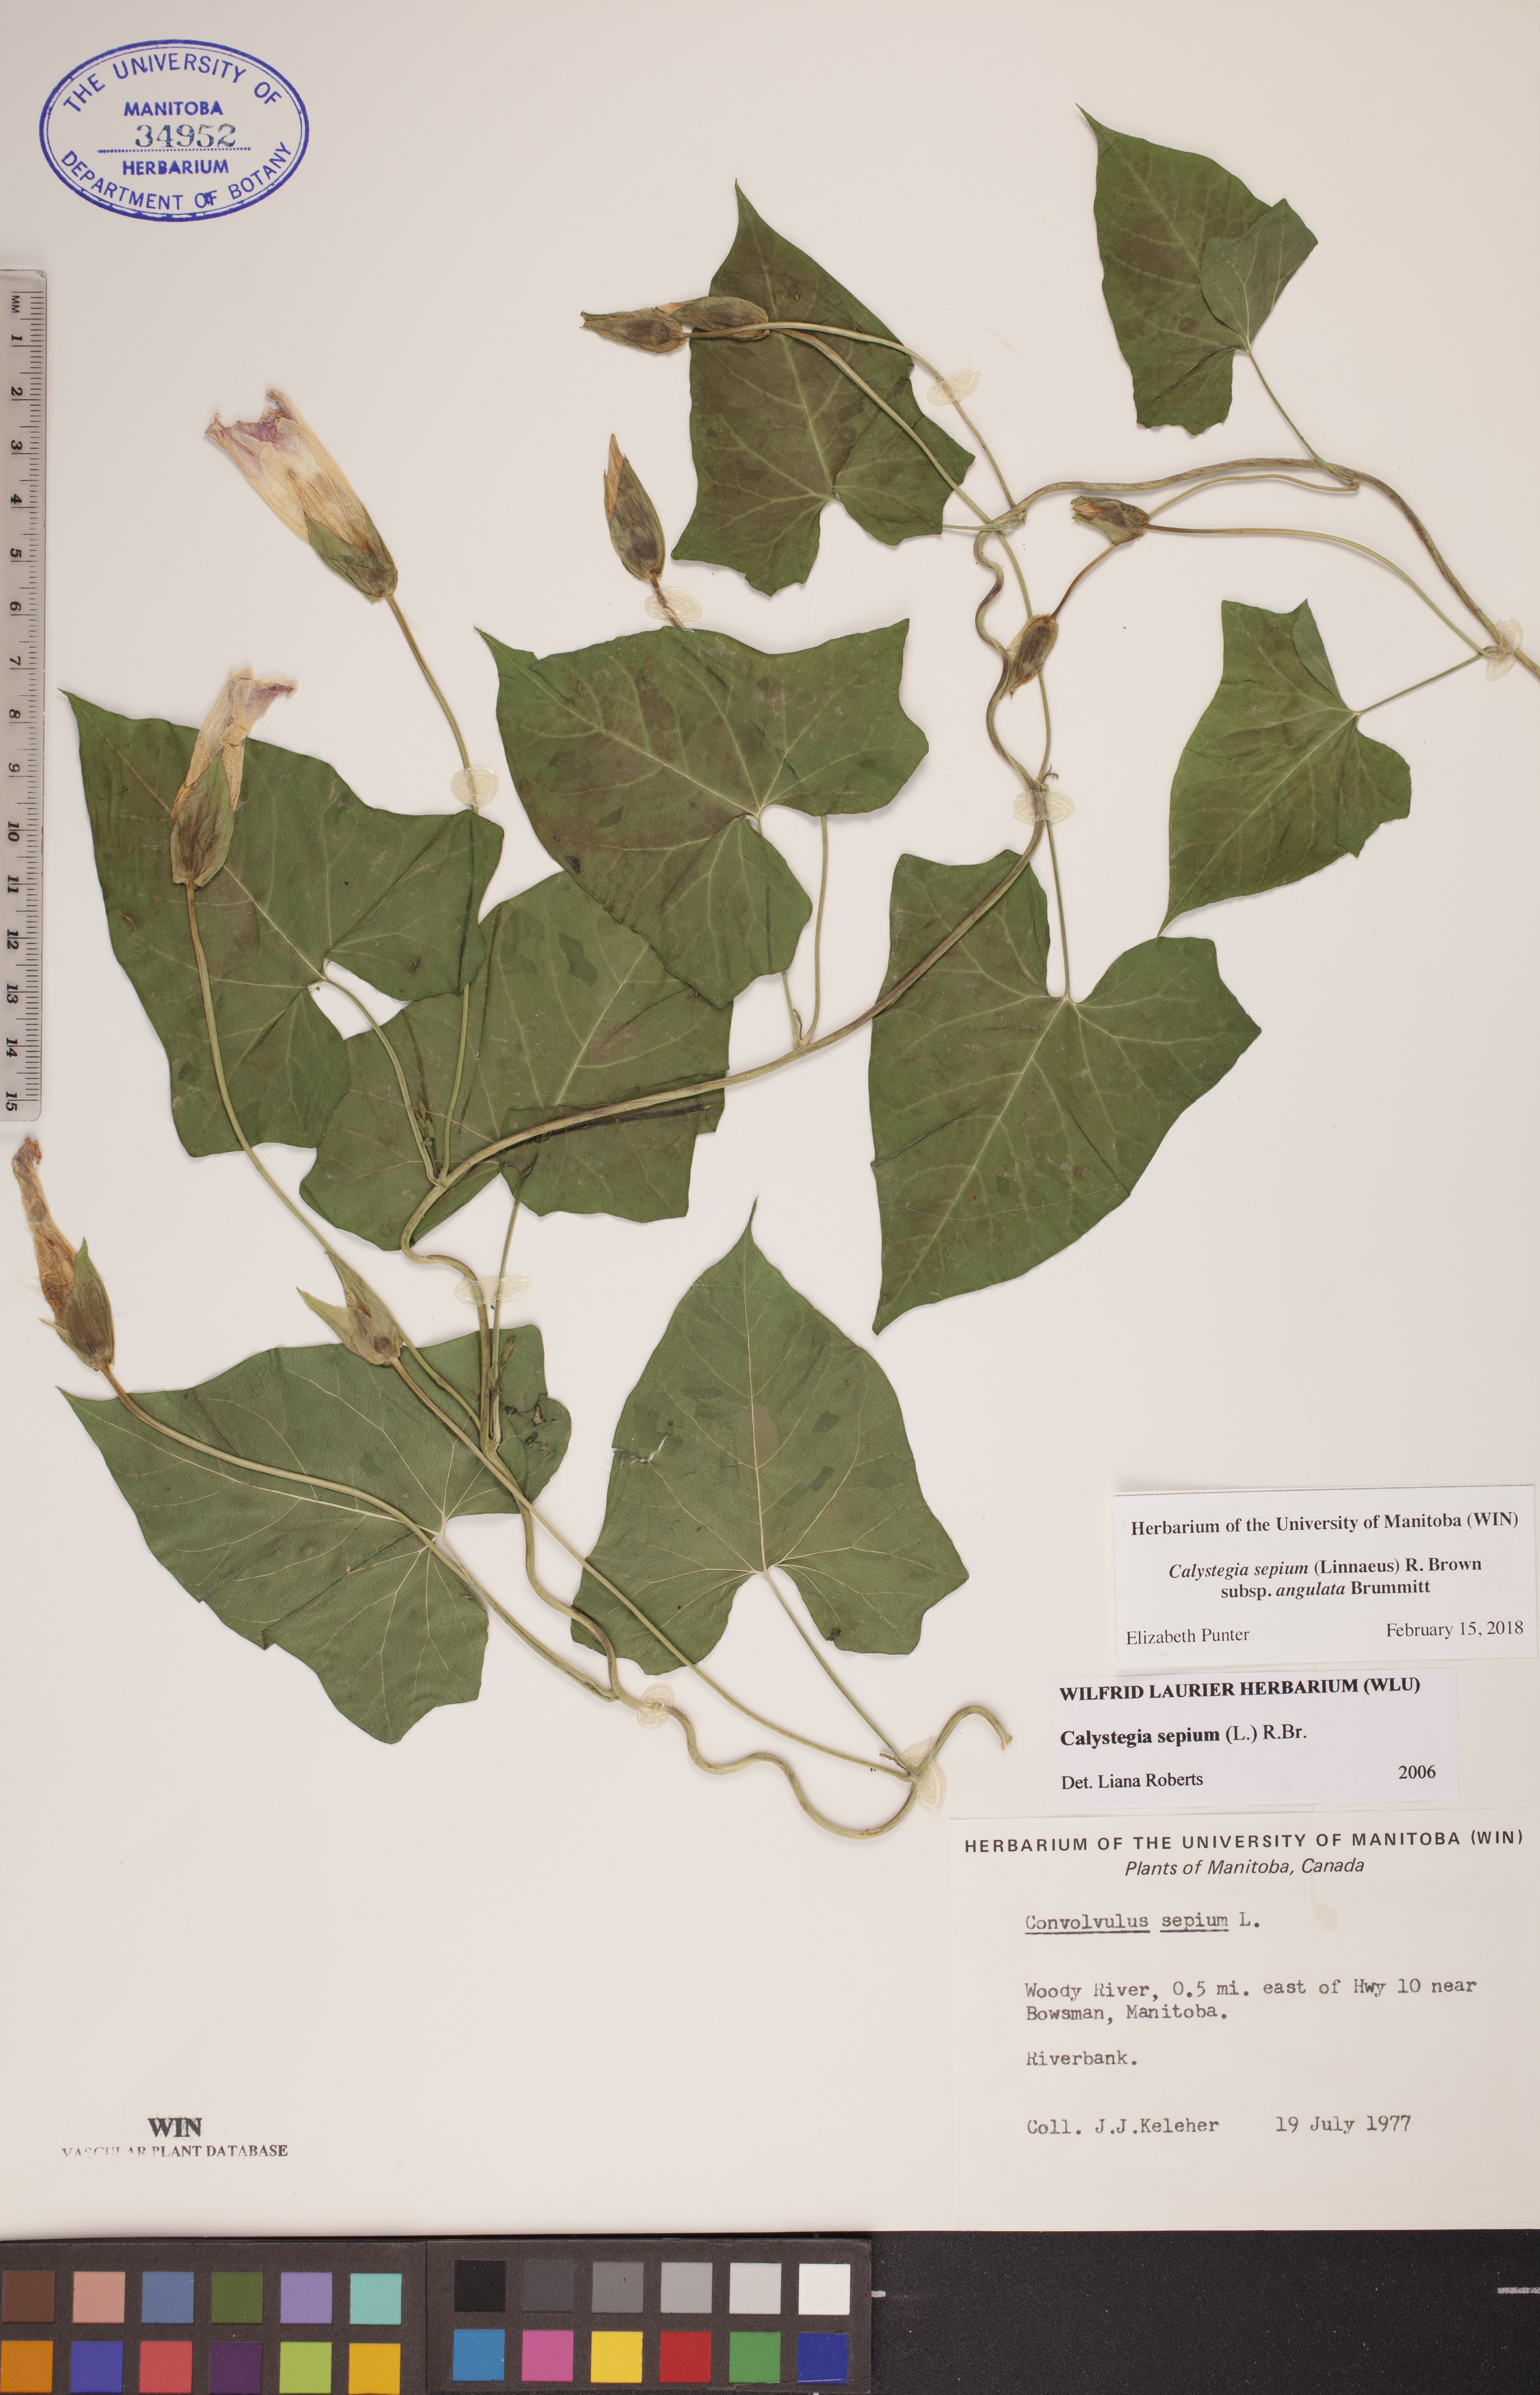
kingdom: Plantae
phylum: Tracheophyta
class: Magnoliopsida
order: Solanales
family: Convolvulaceae
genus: Calystegia
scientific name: Calystegia sepium
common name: Hedge bindweed
